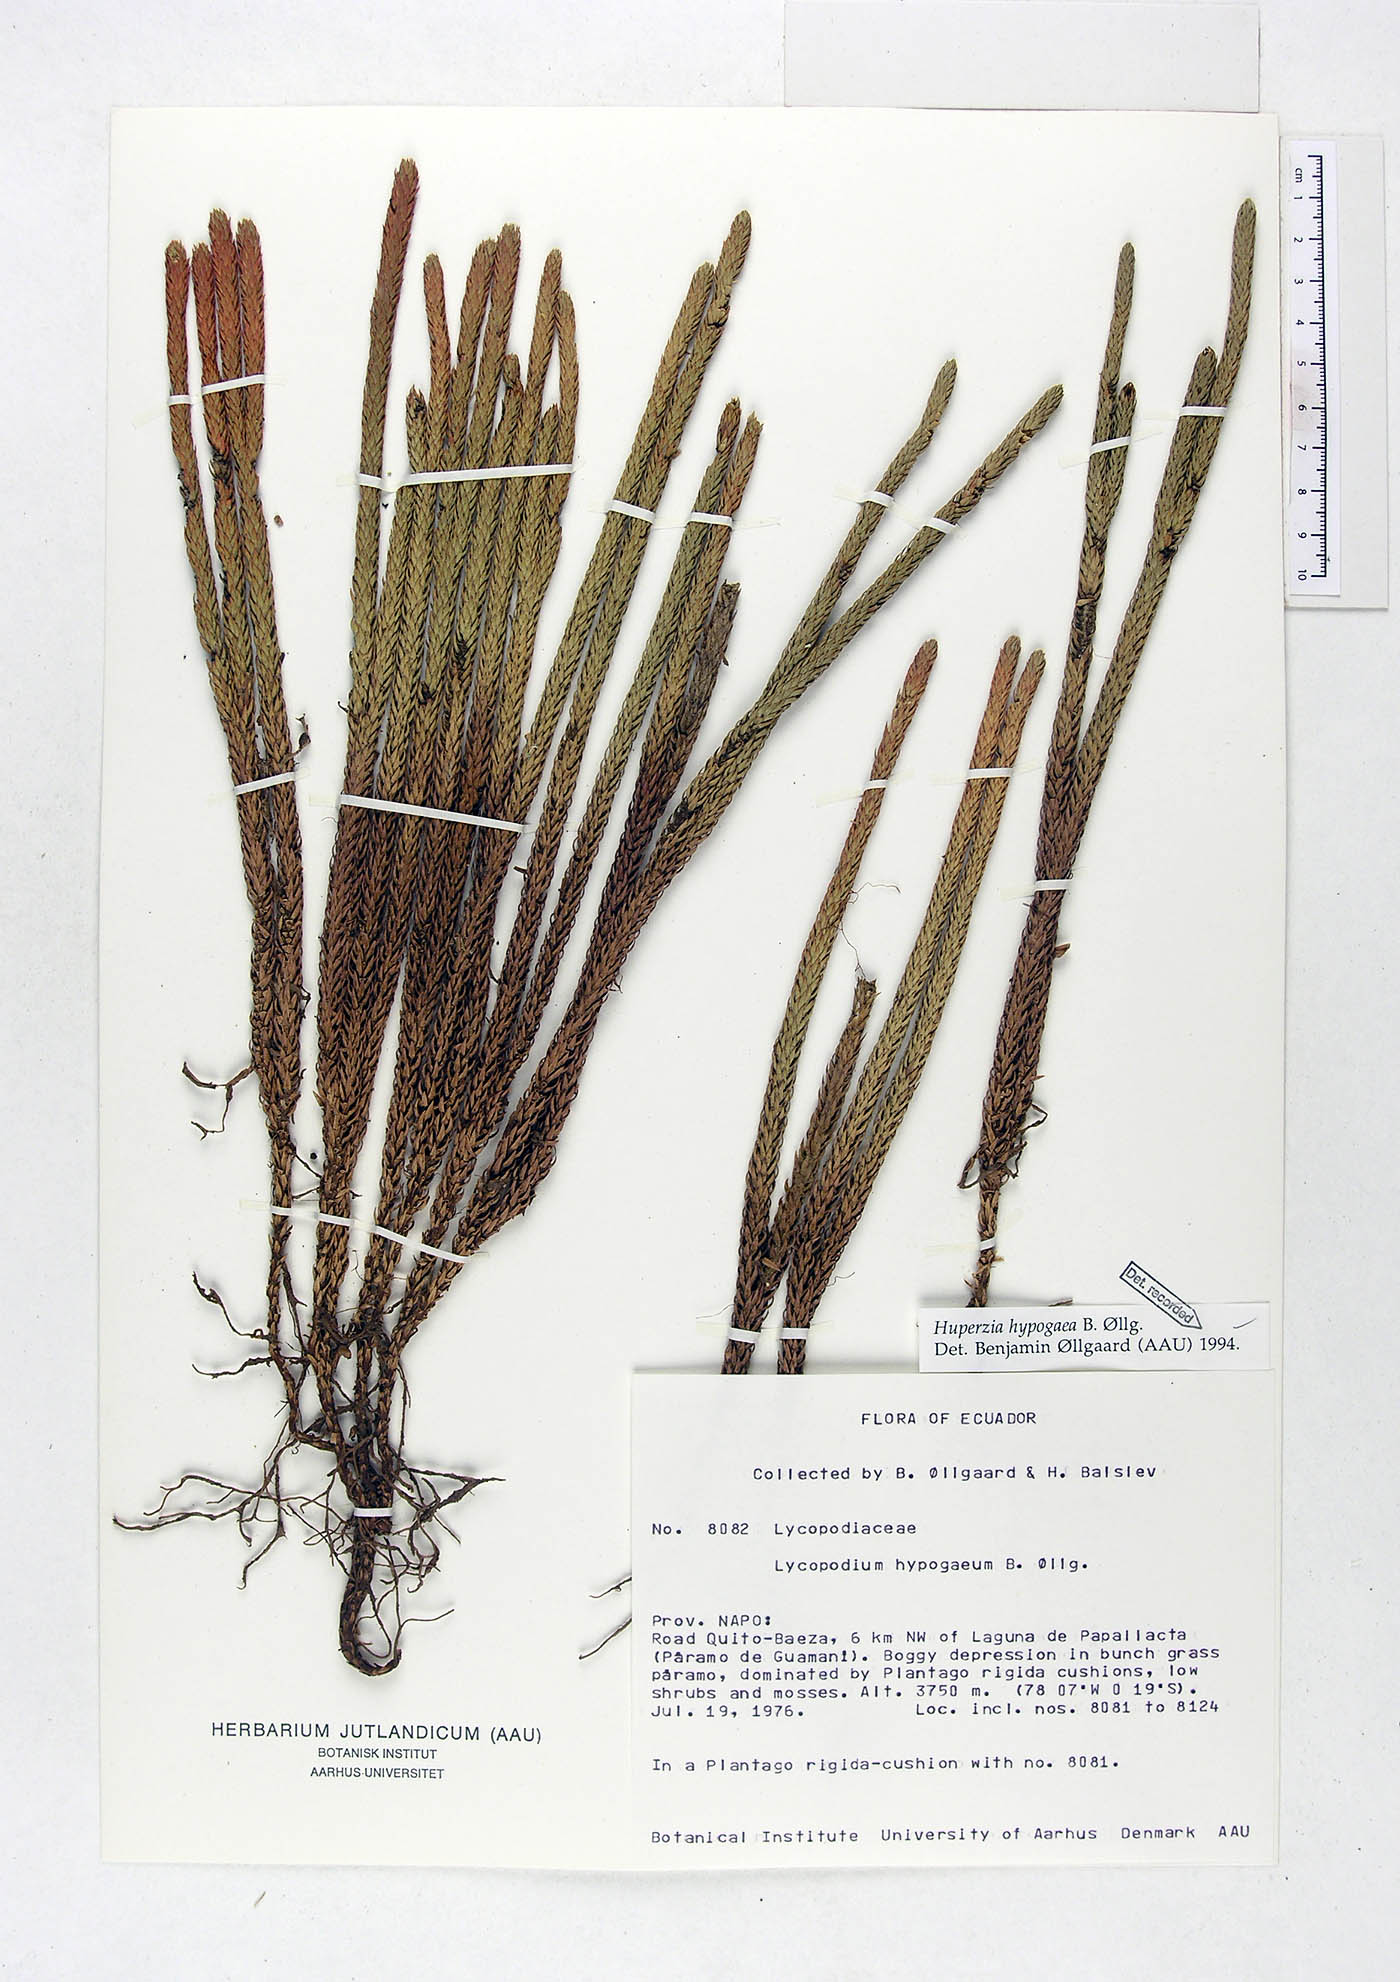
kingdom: Plantae
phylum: Tracheophyta
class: Lycopodiopsida
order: Lycopodiales
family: Lycopodiaceae
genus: Phlegmariurus
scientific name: Phlegmariurus hypogaeus
